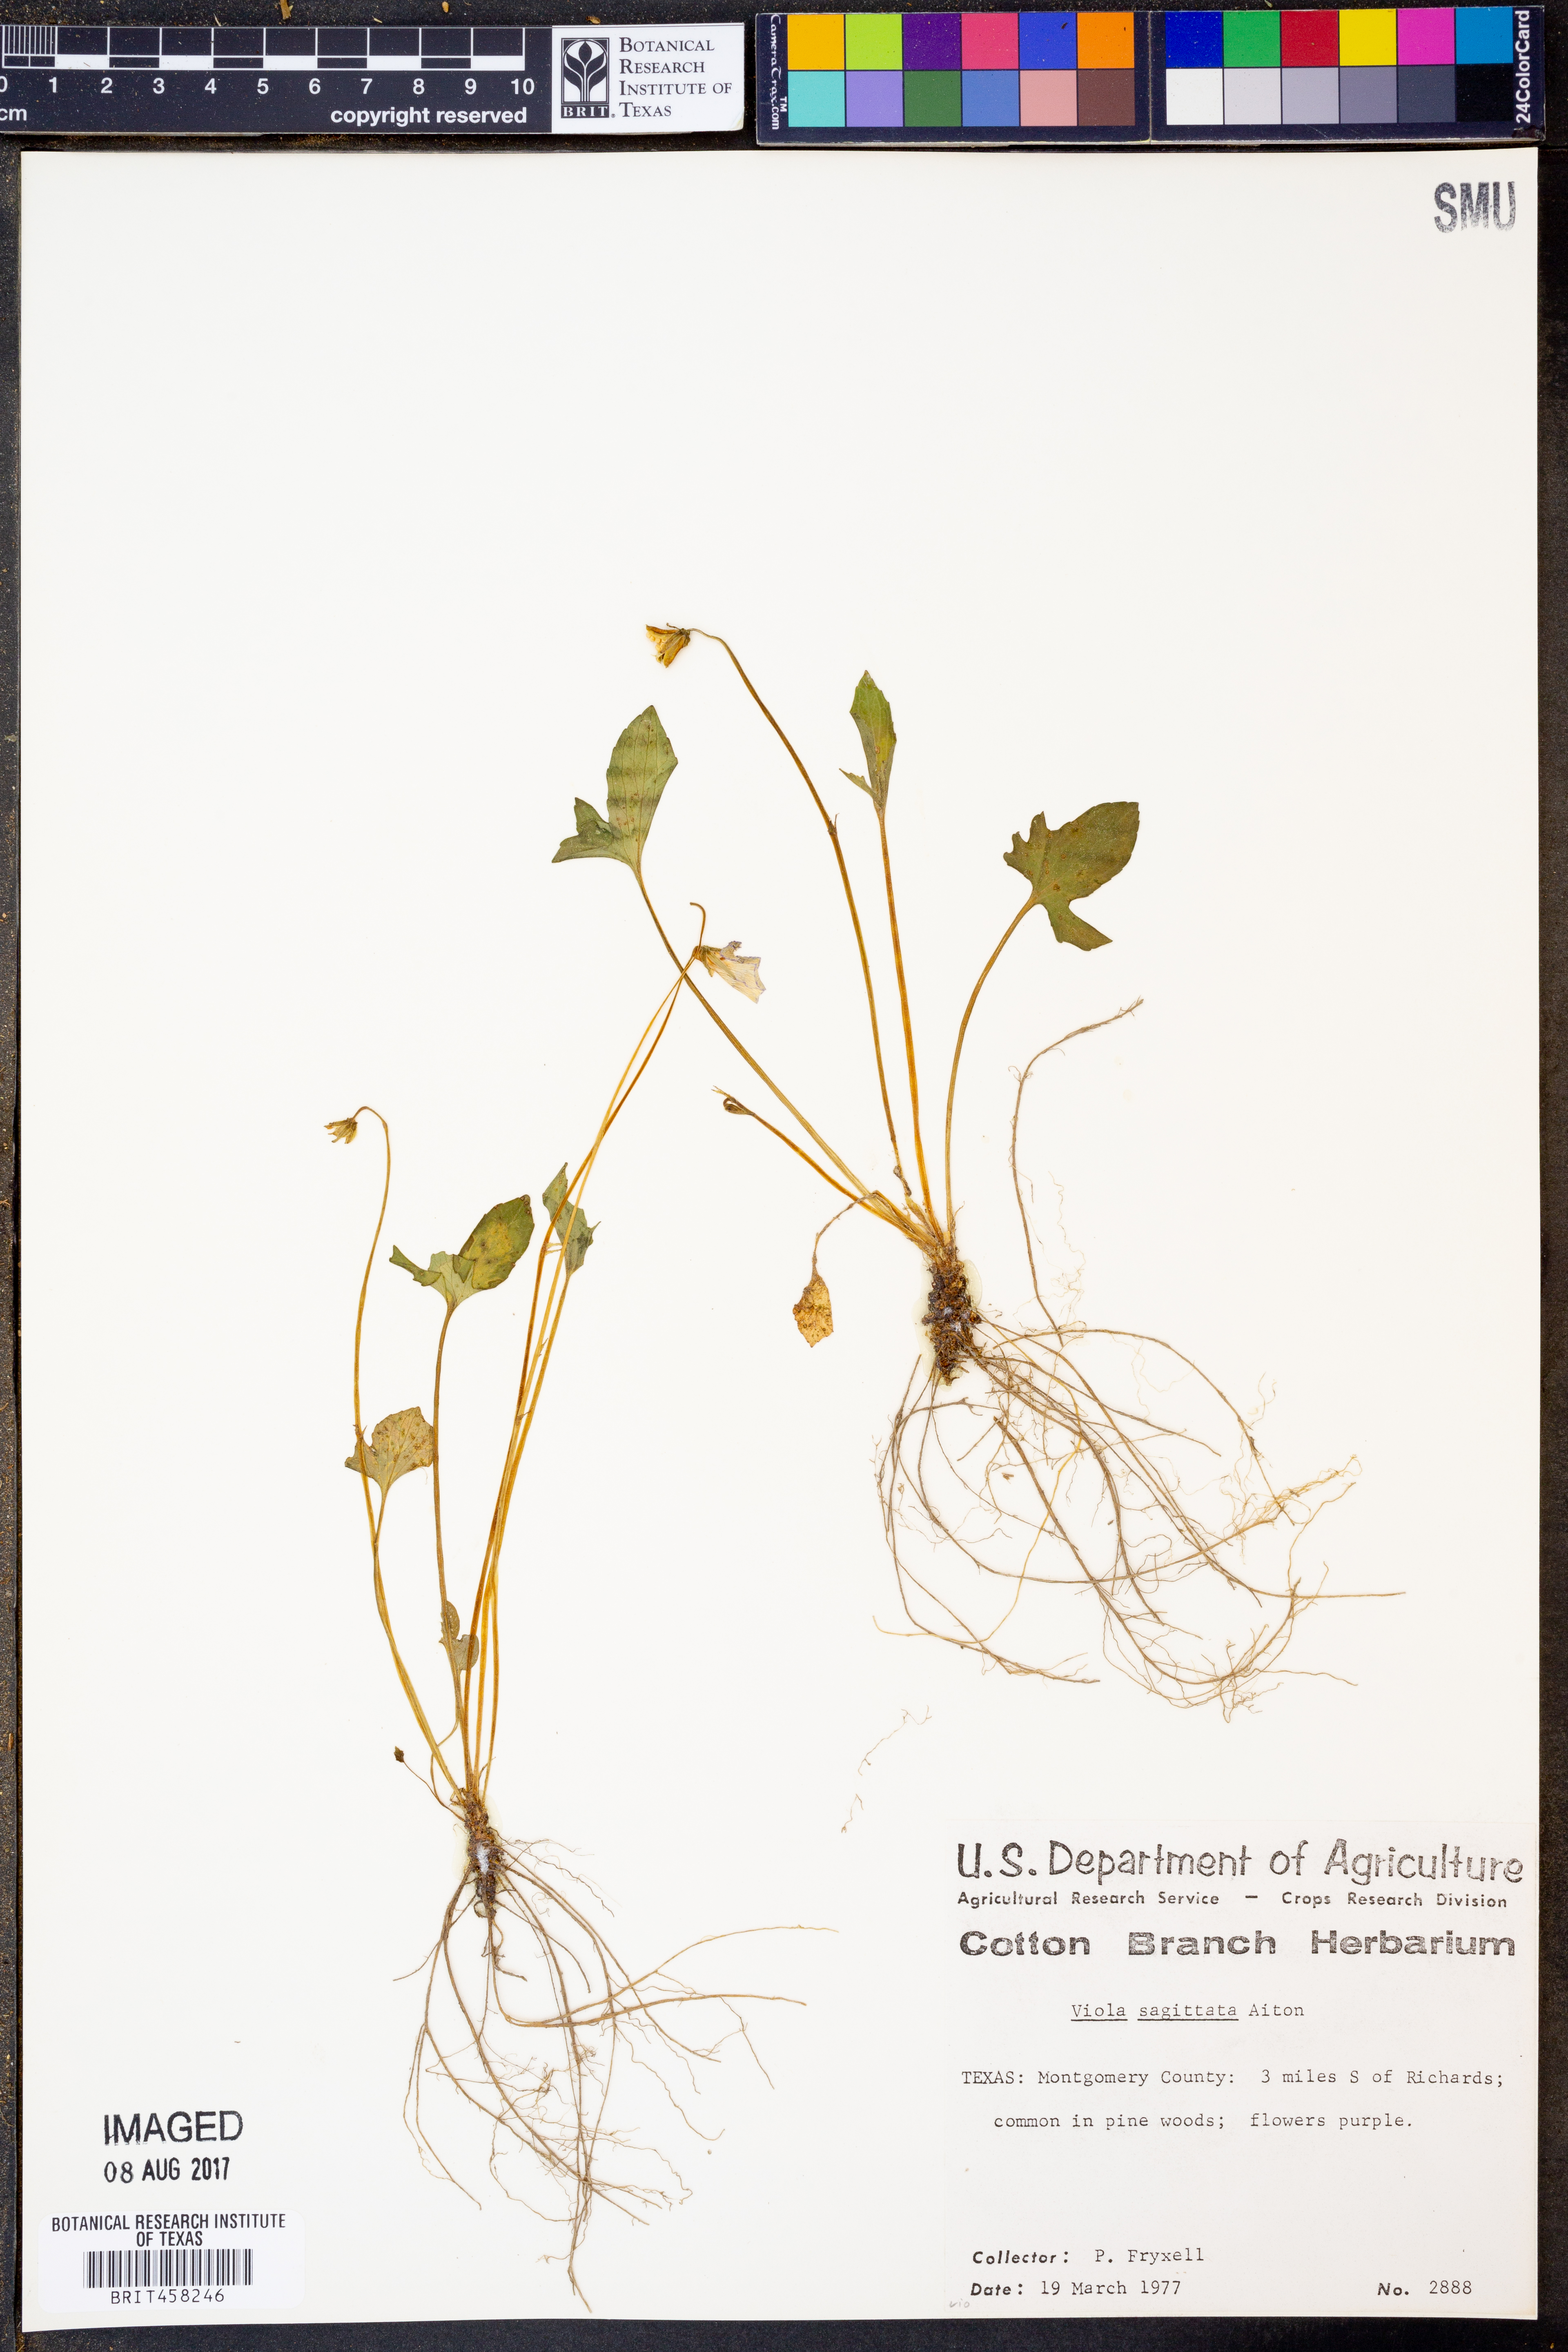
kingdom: Plantae
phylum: Tracheophyta
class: Magnoliopsida
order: Malpighiales
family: Violaceae
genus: Viola
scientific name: Viola sagittata
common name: Arrowhead violet
